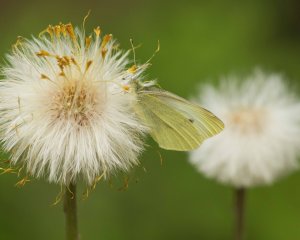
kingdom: Animalia
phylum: Arthropoda
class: Insecta
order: Lepidoptera
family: Pieridae
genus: Pieris
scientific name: Pieris rapae
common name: Cabbage White
